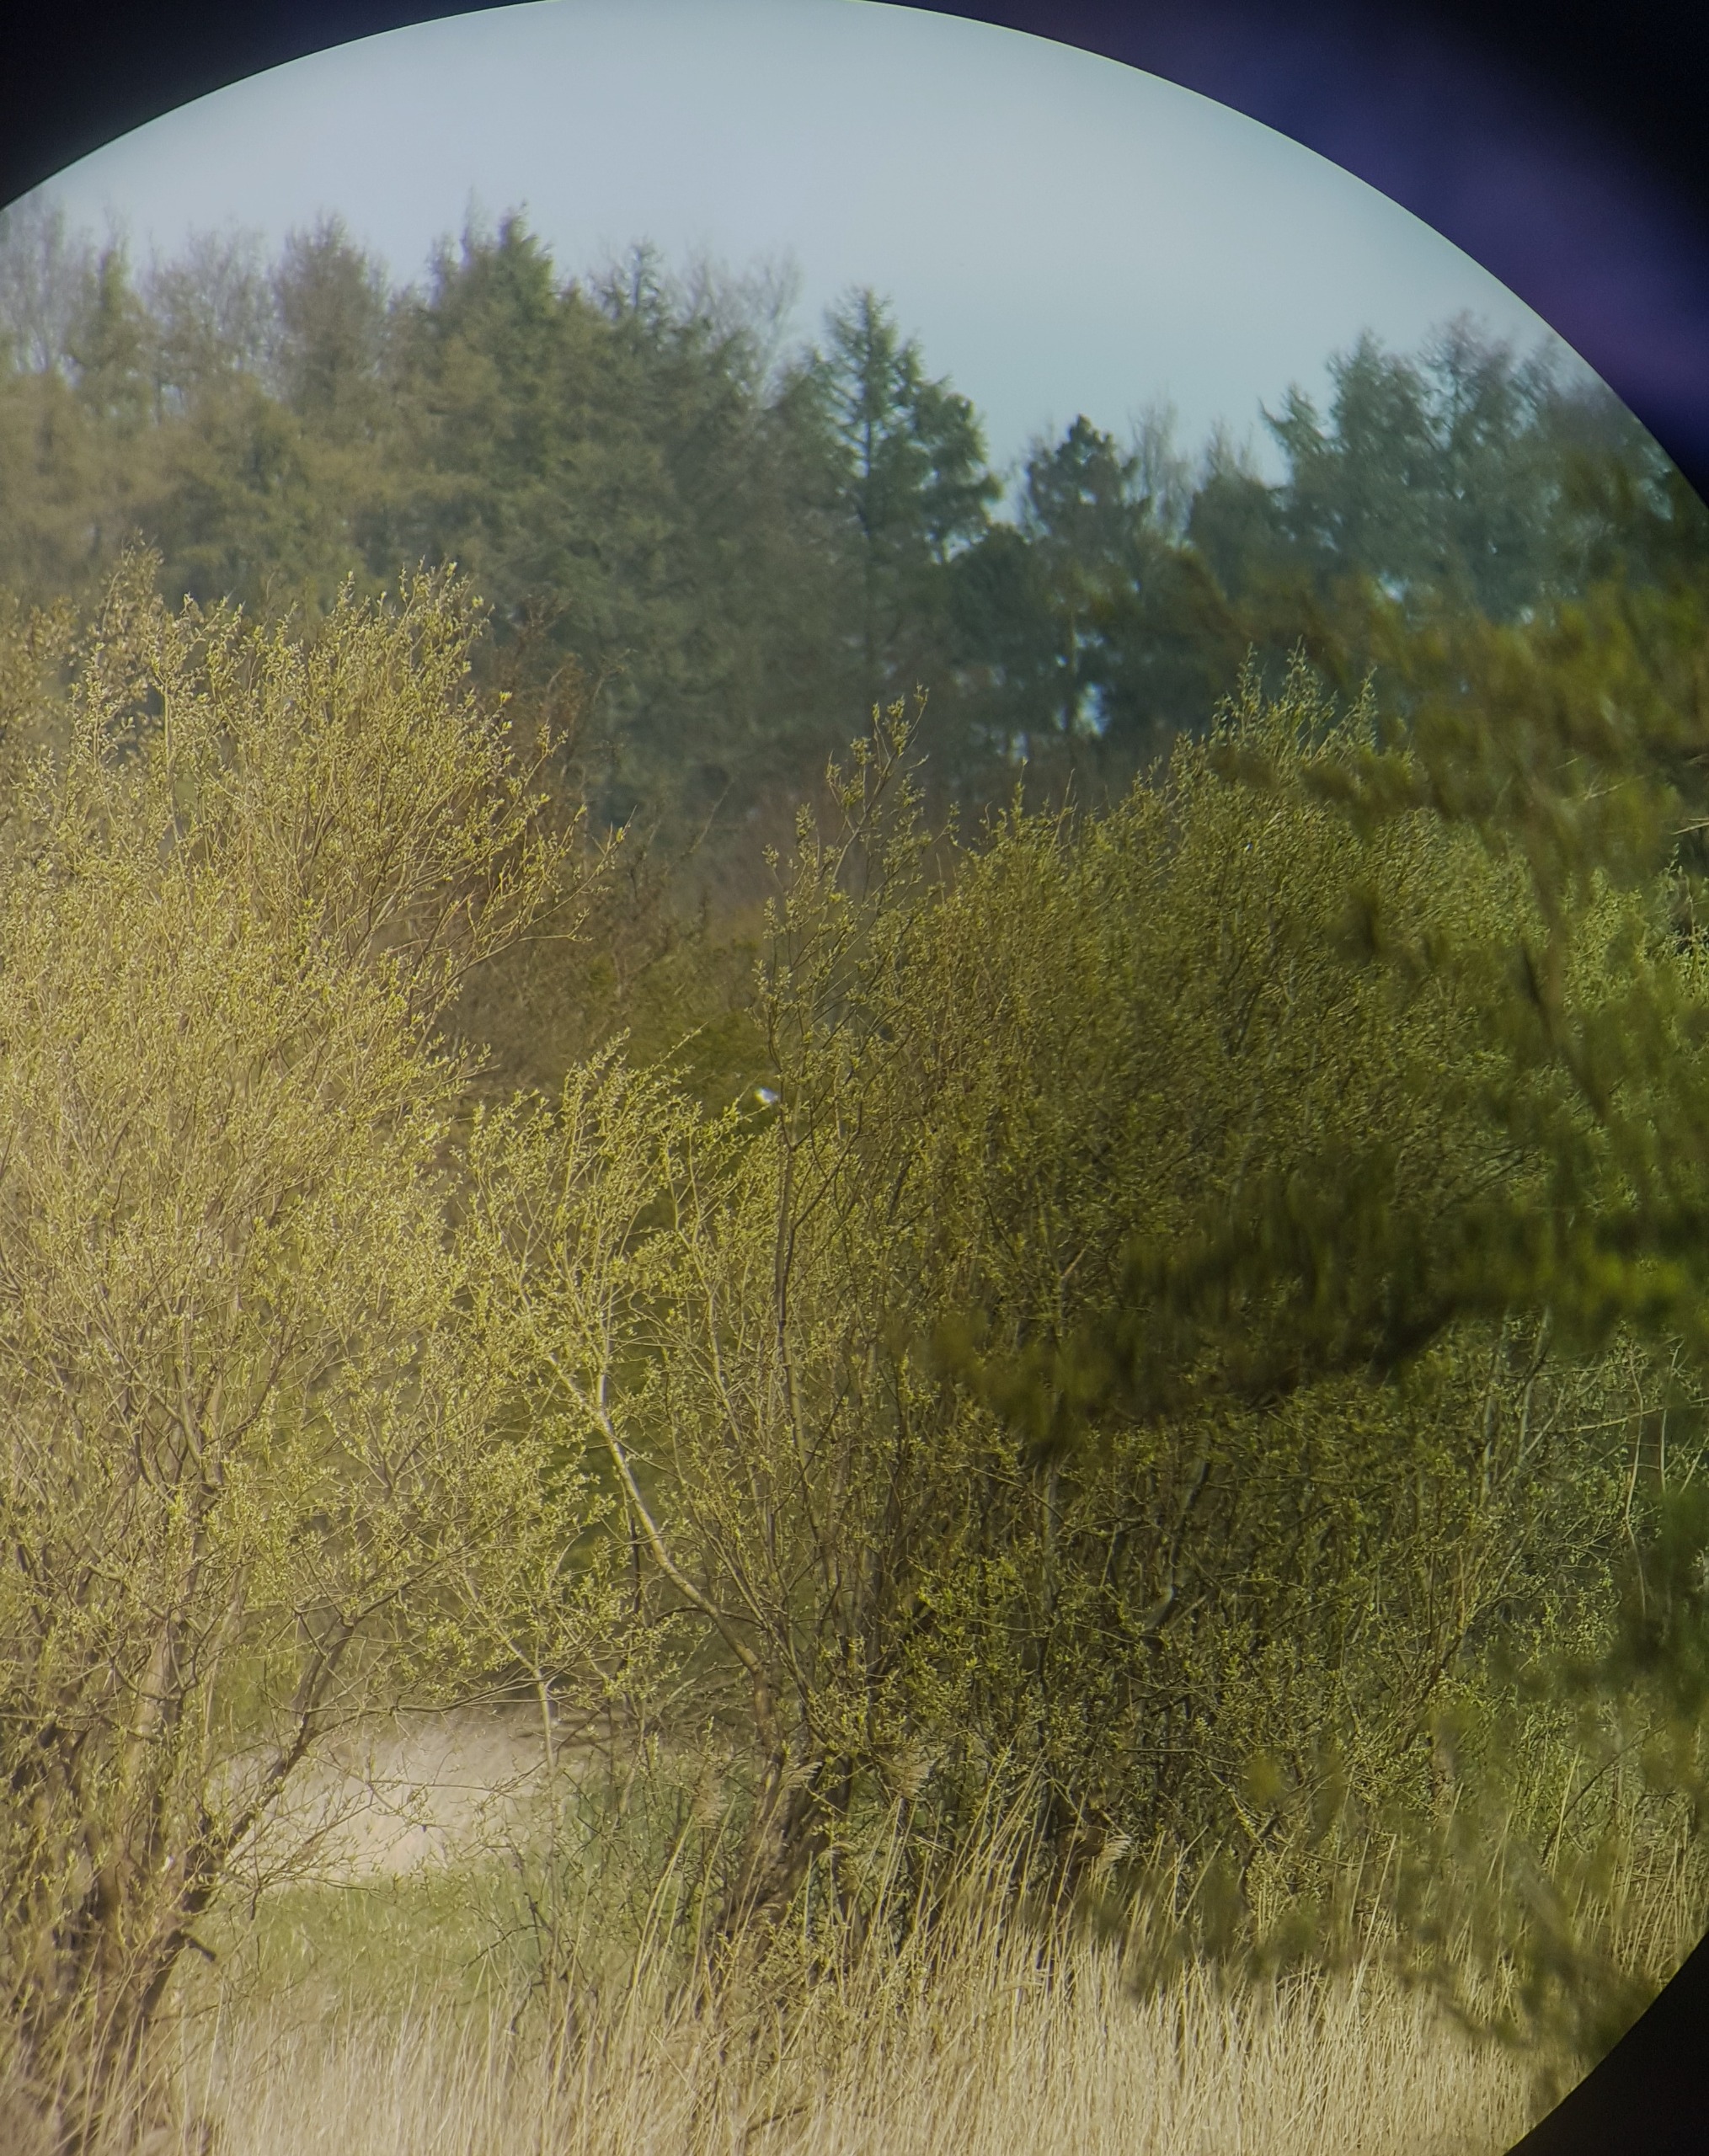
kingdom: Animalia
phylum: Chordata
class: Aves
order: Accipitriformes
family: Accipitridae
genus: Elanus
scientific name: Elanus caeruleus
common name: Blå glente
